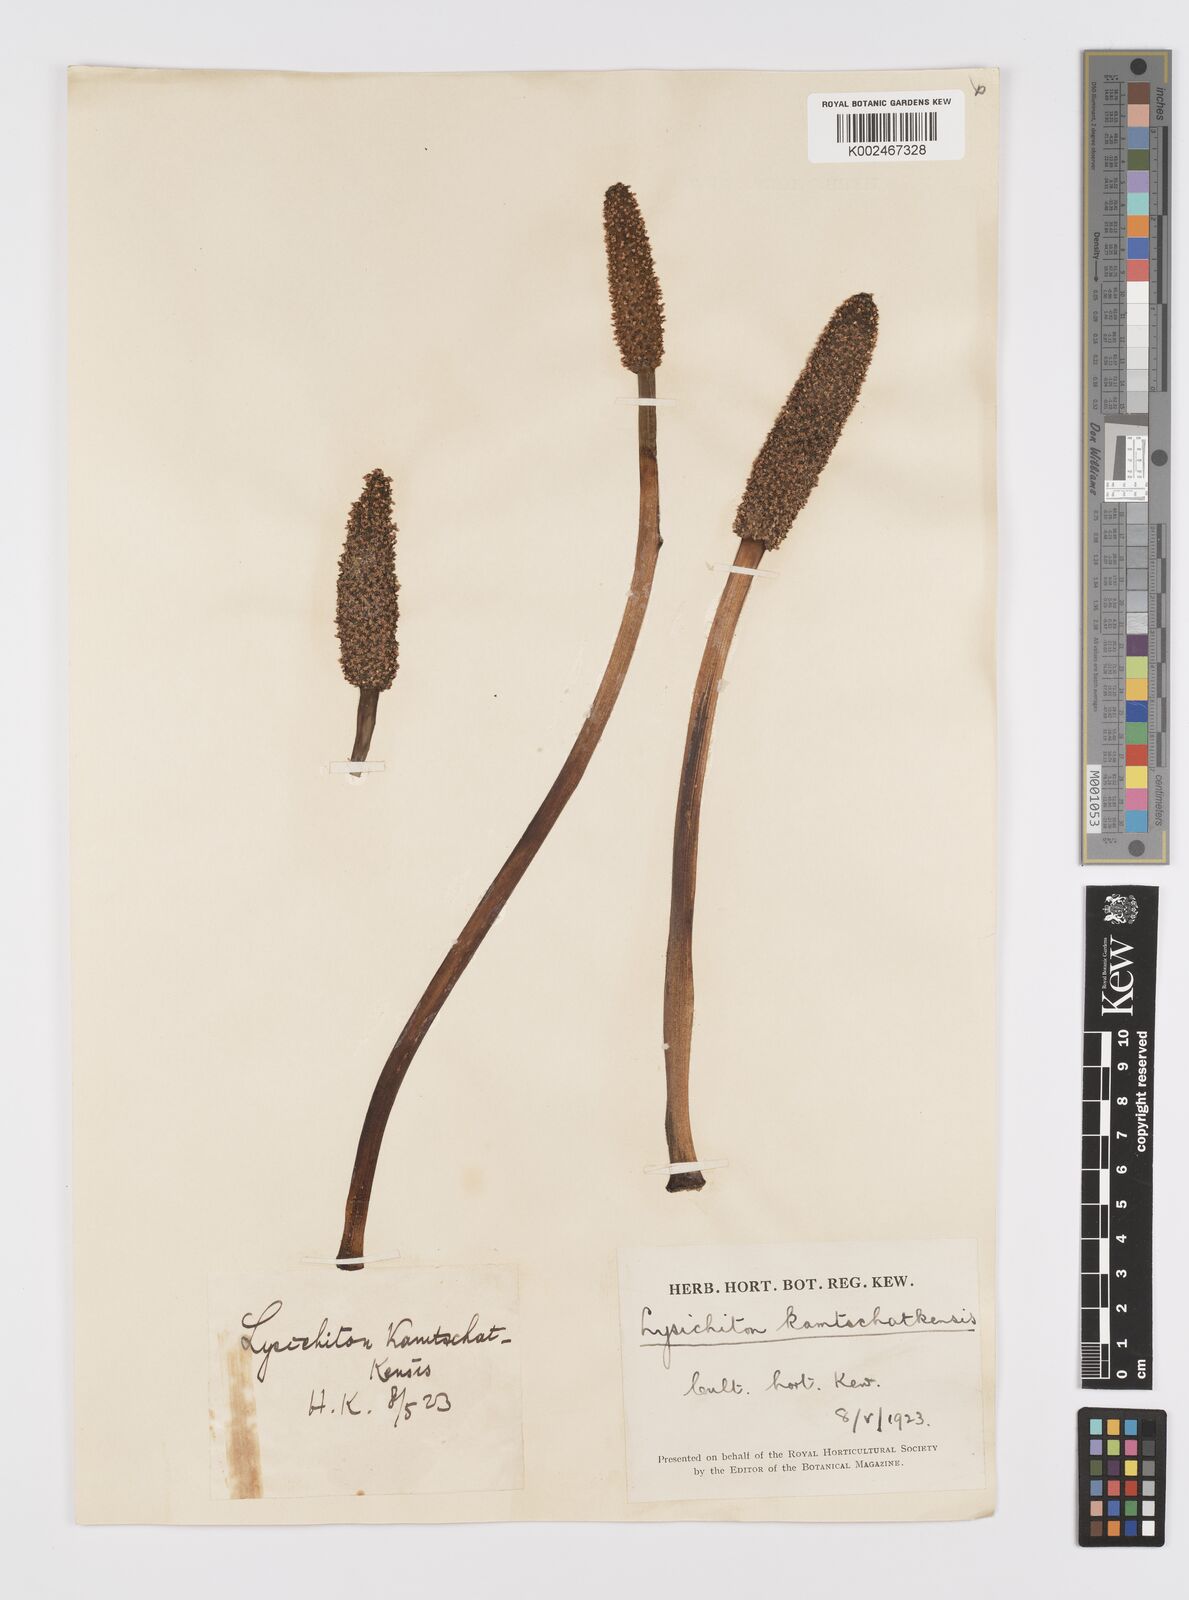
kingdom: Plantae
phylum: Tracheophyta
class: Liliopsida
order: Alismatales
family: Araceae
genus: Lysichiton
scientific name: Lysichiton americanus
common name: American skunk cabbage
